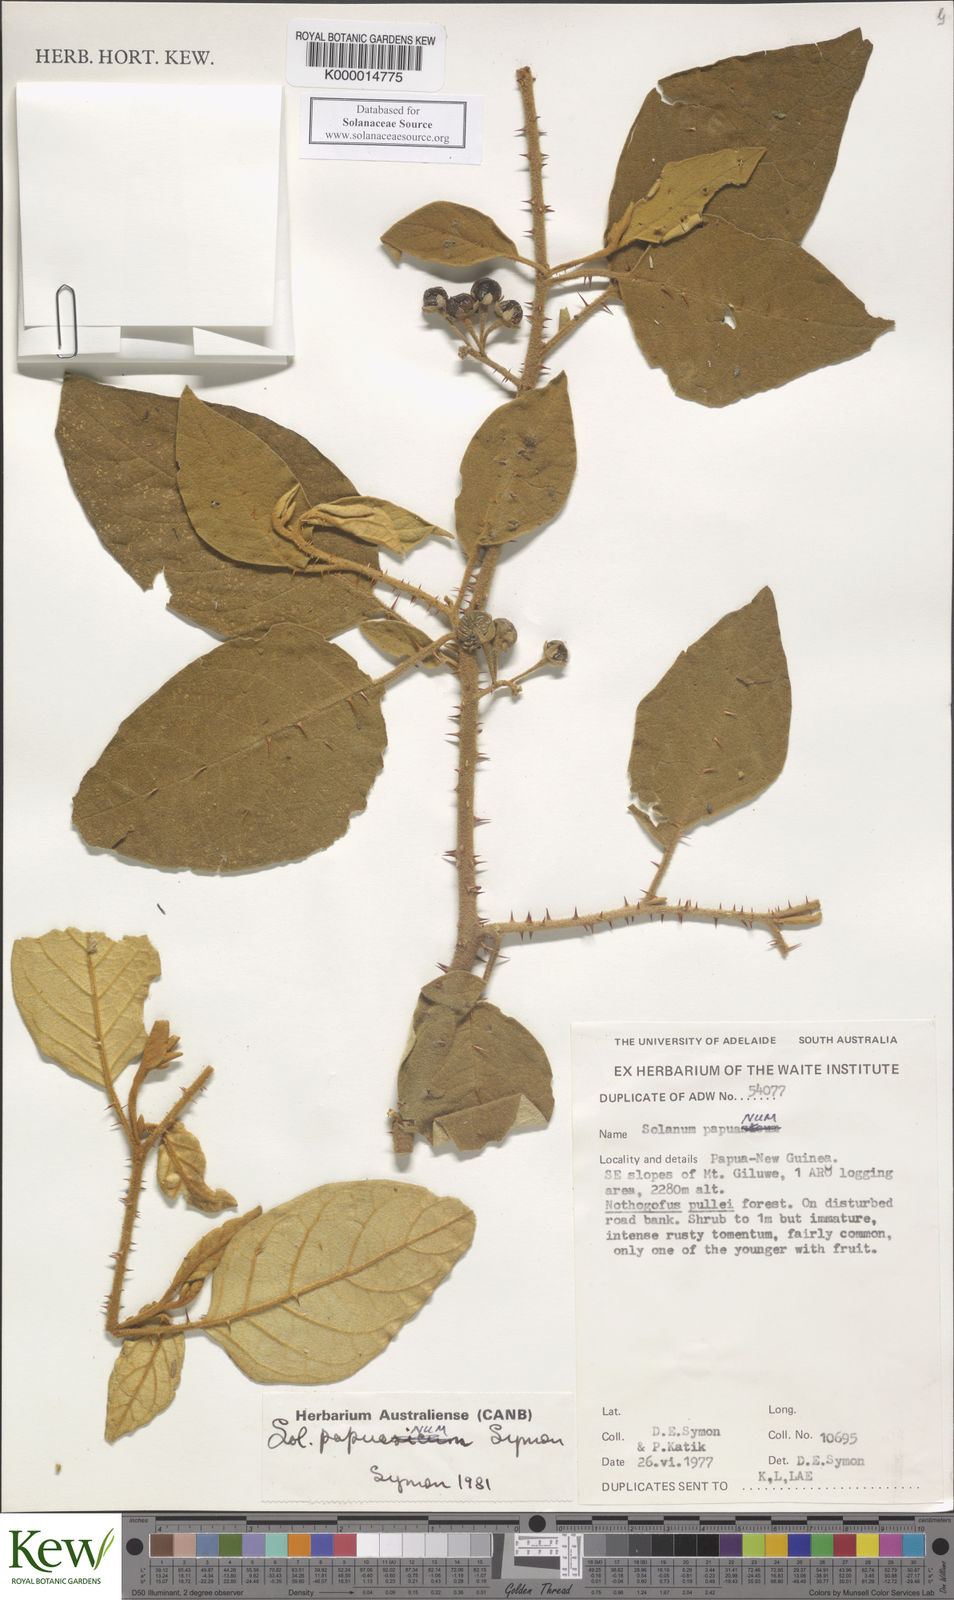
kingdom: Plantae
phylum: Tracheophyta
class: Magnoliopsida
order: Solanales
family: Solanaceae
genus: Solanum
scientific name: Solanum papuanum
